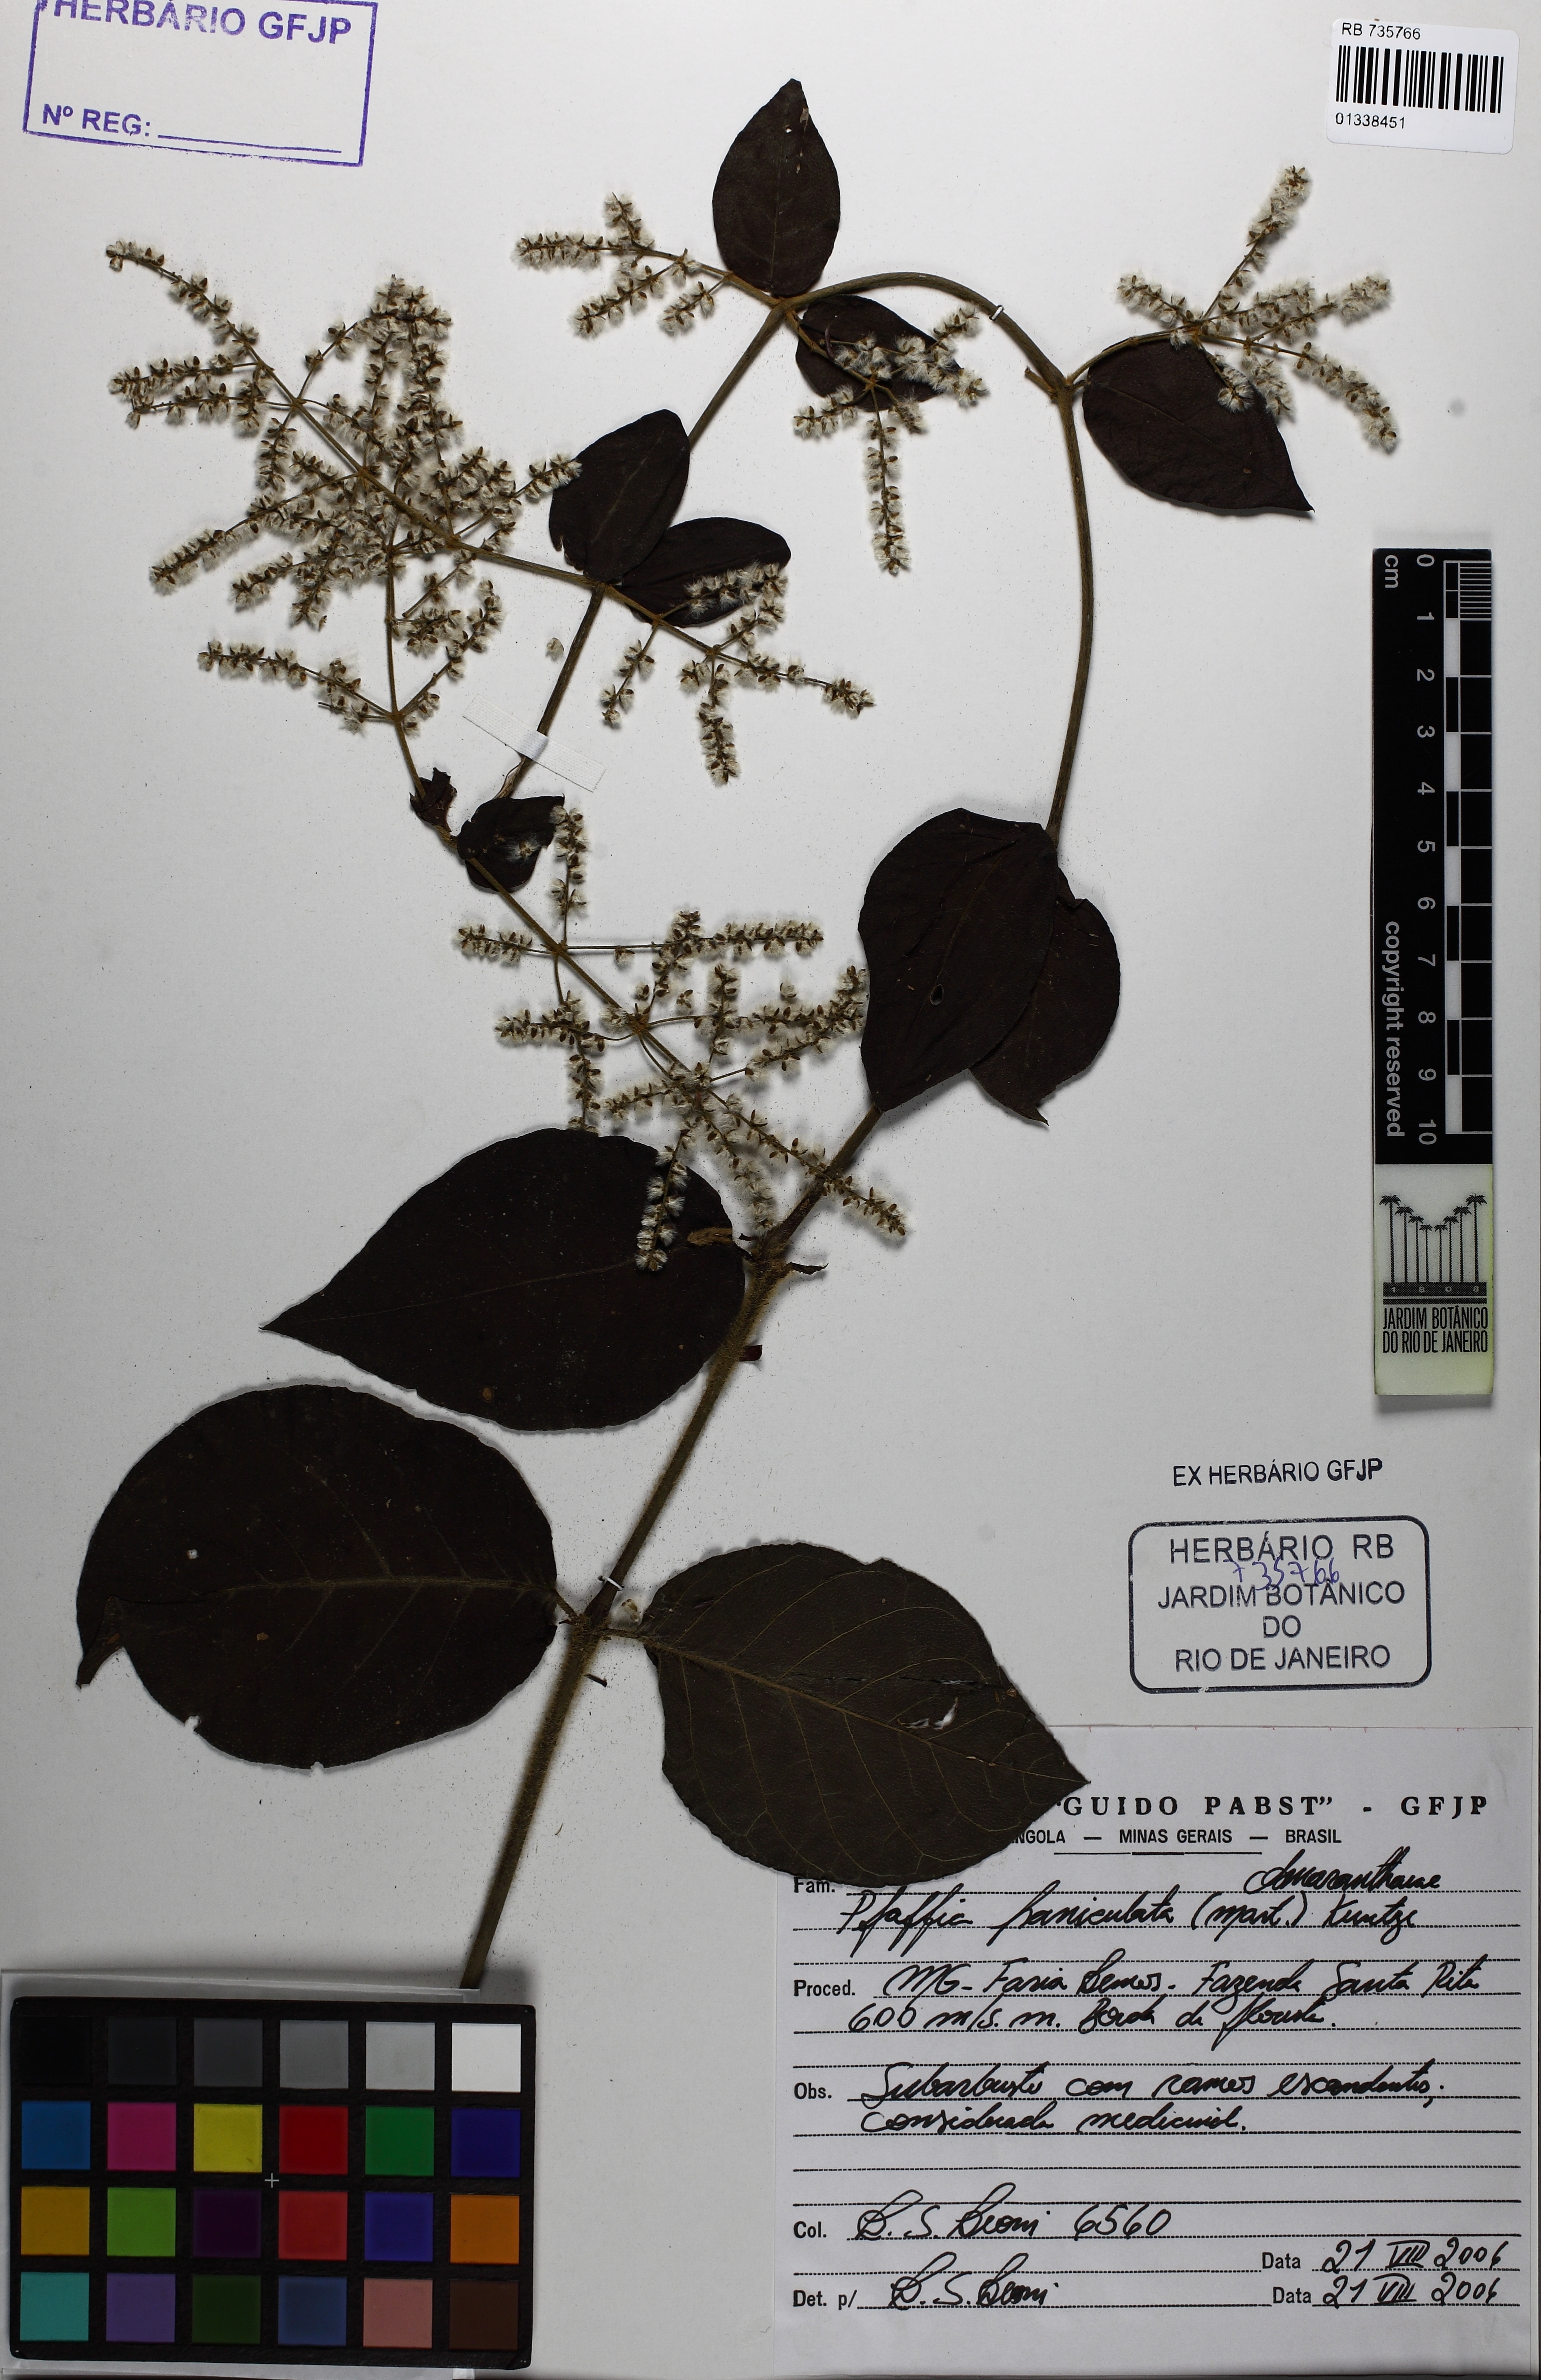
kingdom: Plantae
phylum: Tracheophyta
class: Magnoliopsida
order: Caryophyllales
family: Amaranthaceae
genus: Hebanthe
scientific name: Hebanthe erianthos
